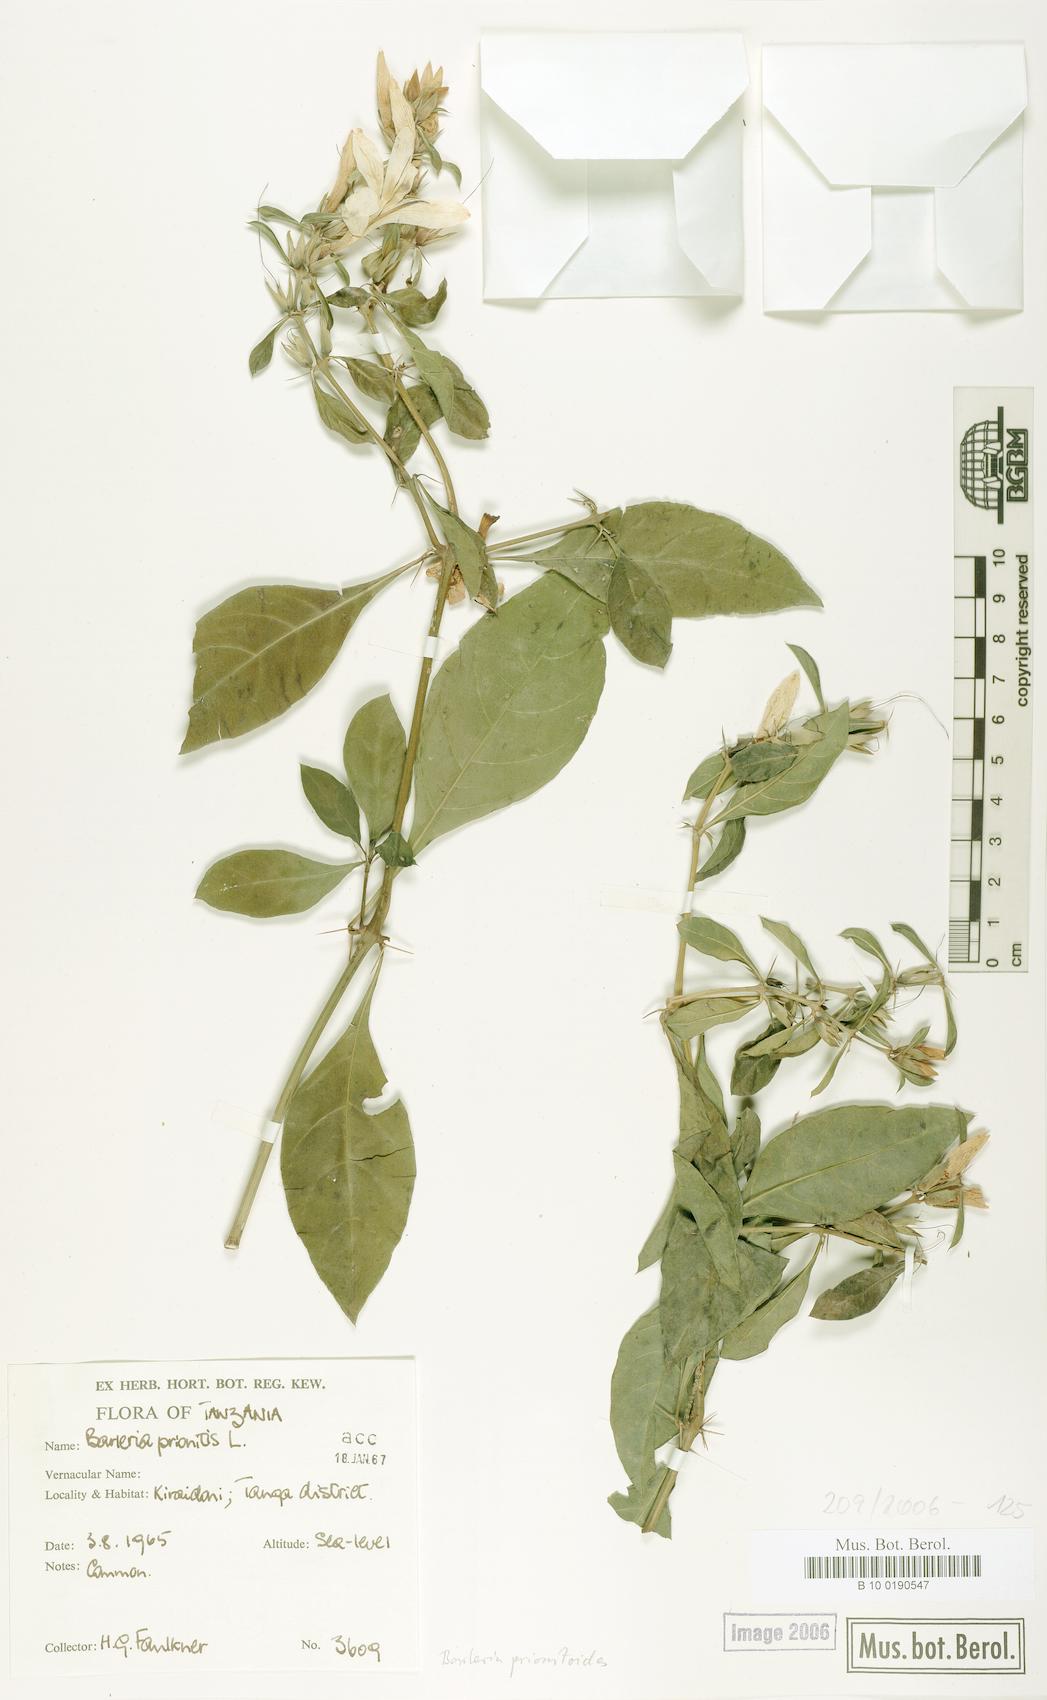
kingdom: Plantae
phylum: Tracheophyta
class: Magnoliopsida
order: Lamiales
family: Acanthaceae
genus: Barleria
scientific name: Barleria prionitis
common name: Barleria
